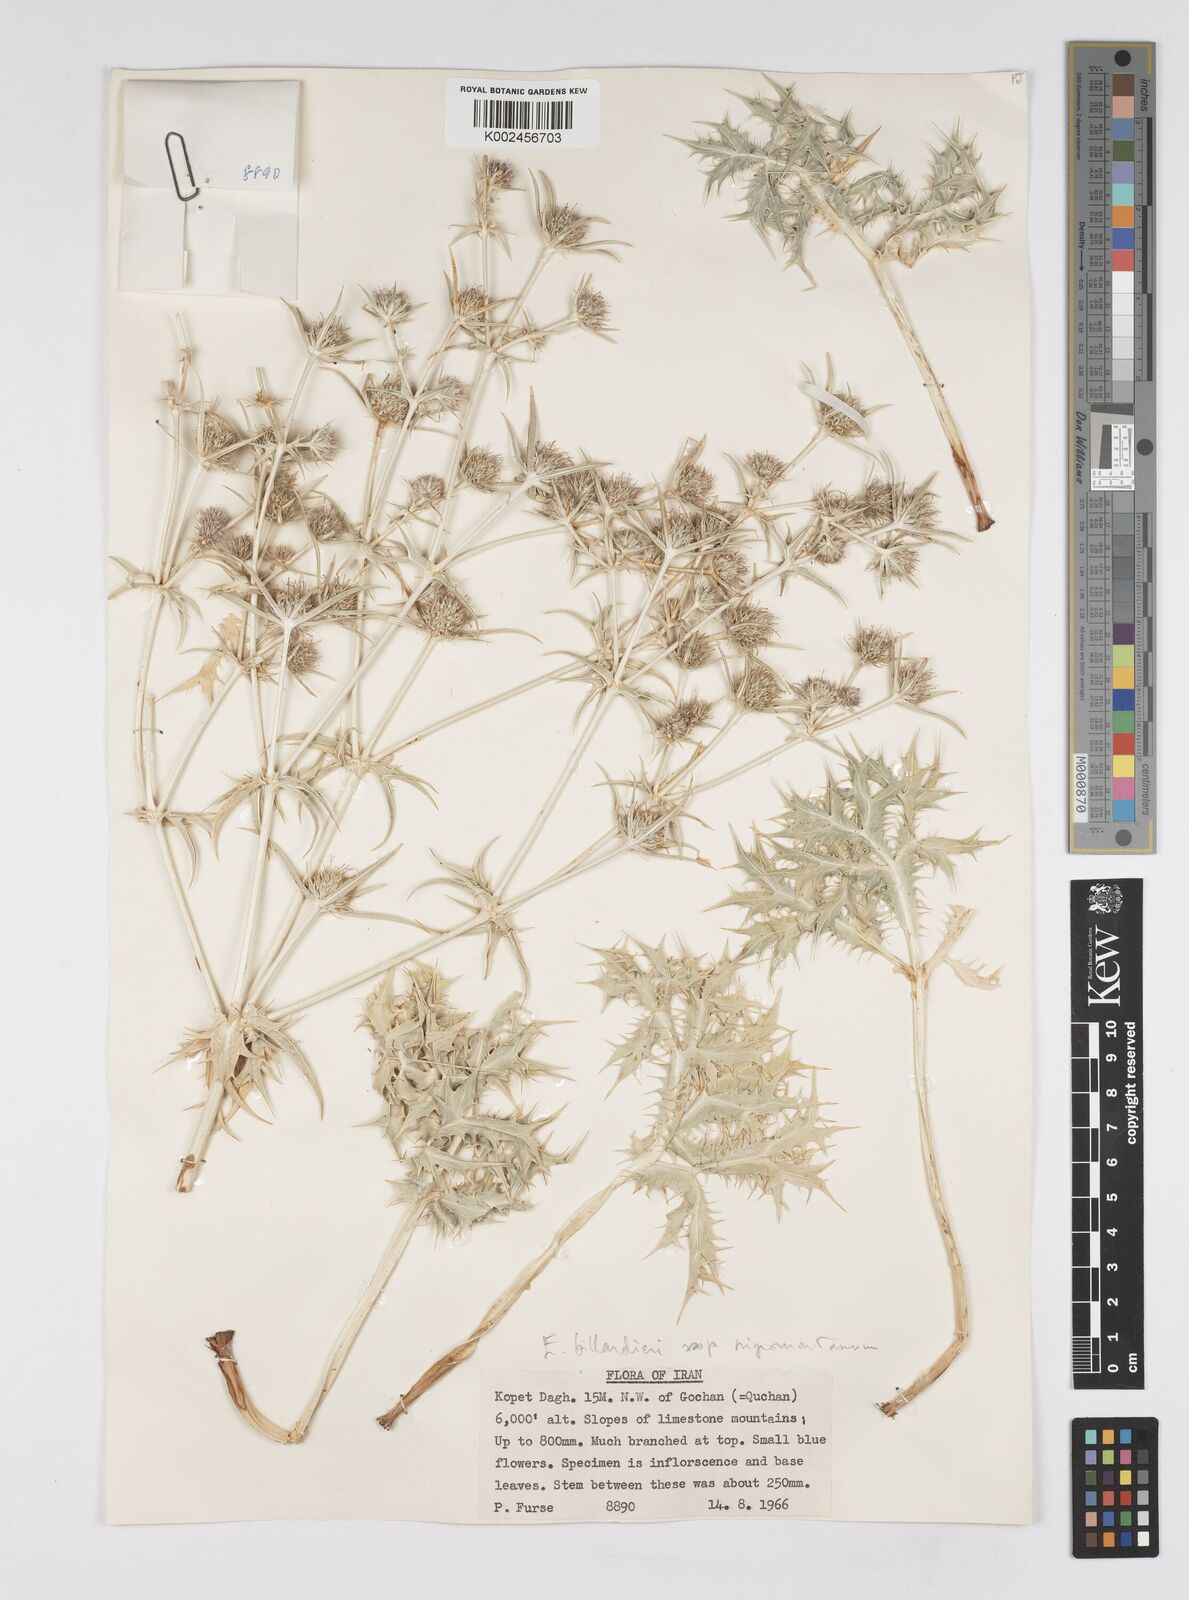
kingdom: Plantae
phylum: Tracheophyta
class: Magnoliopsida
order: Apiales
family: Apiaceae
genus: Eryngium
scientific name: Eryngium heldreichii
